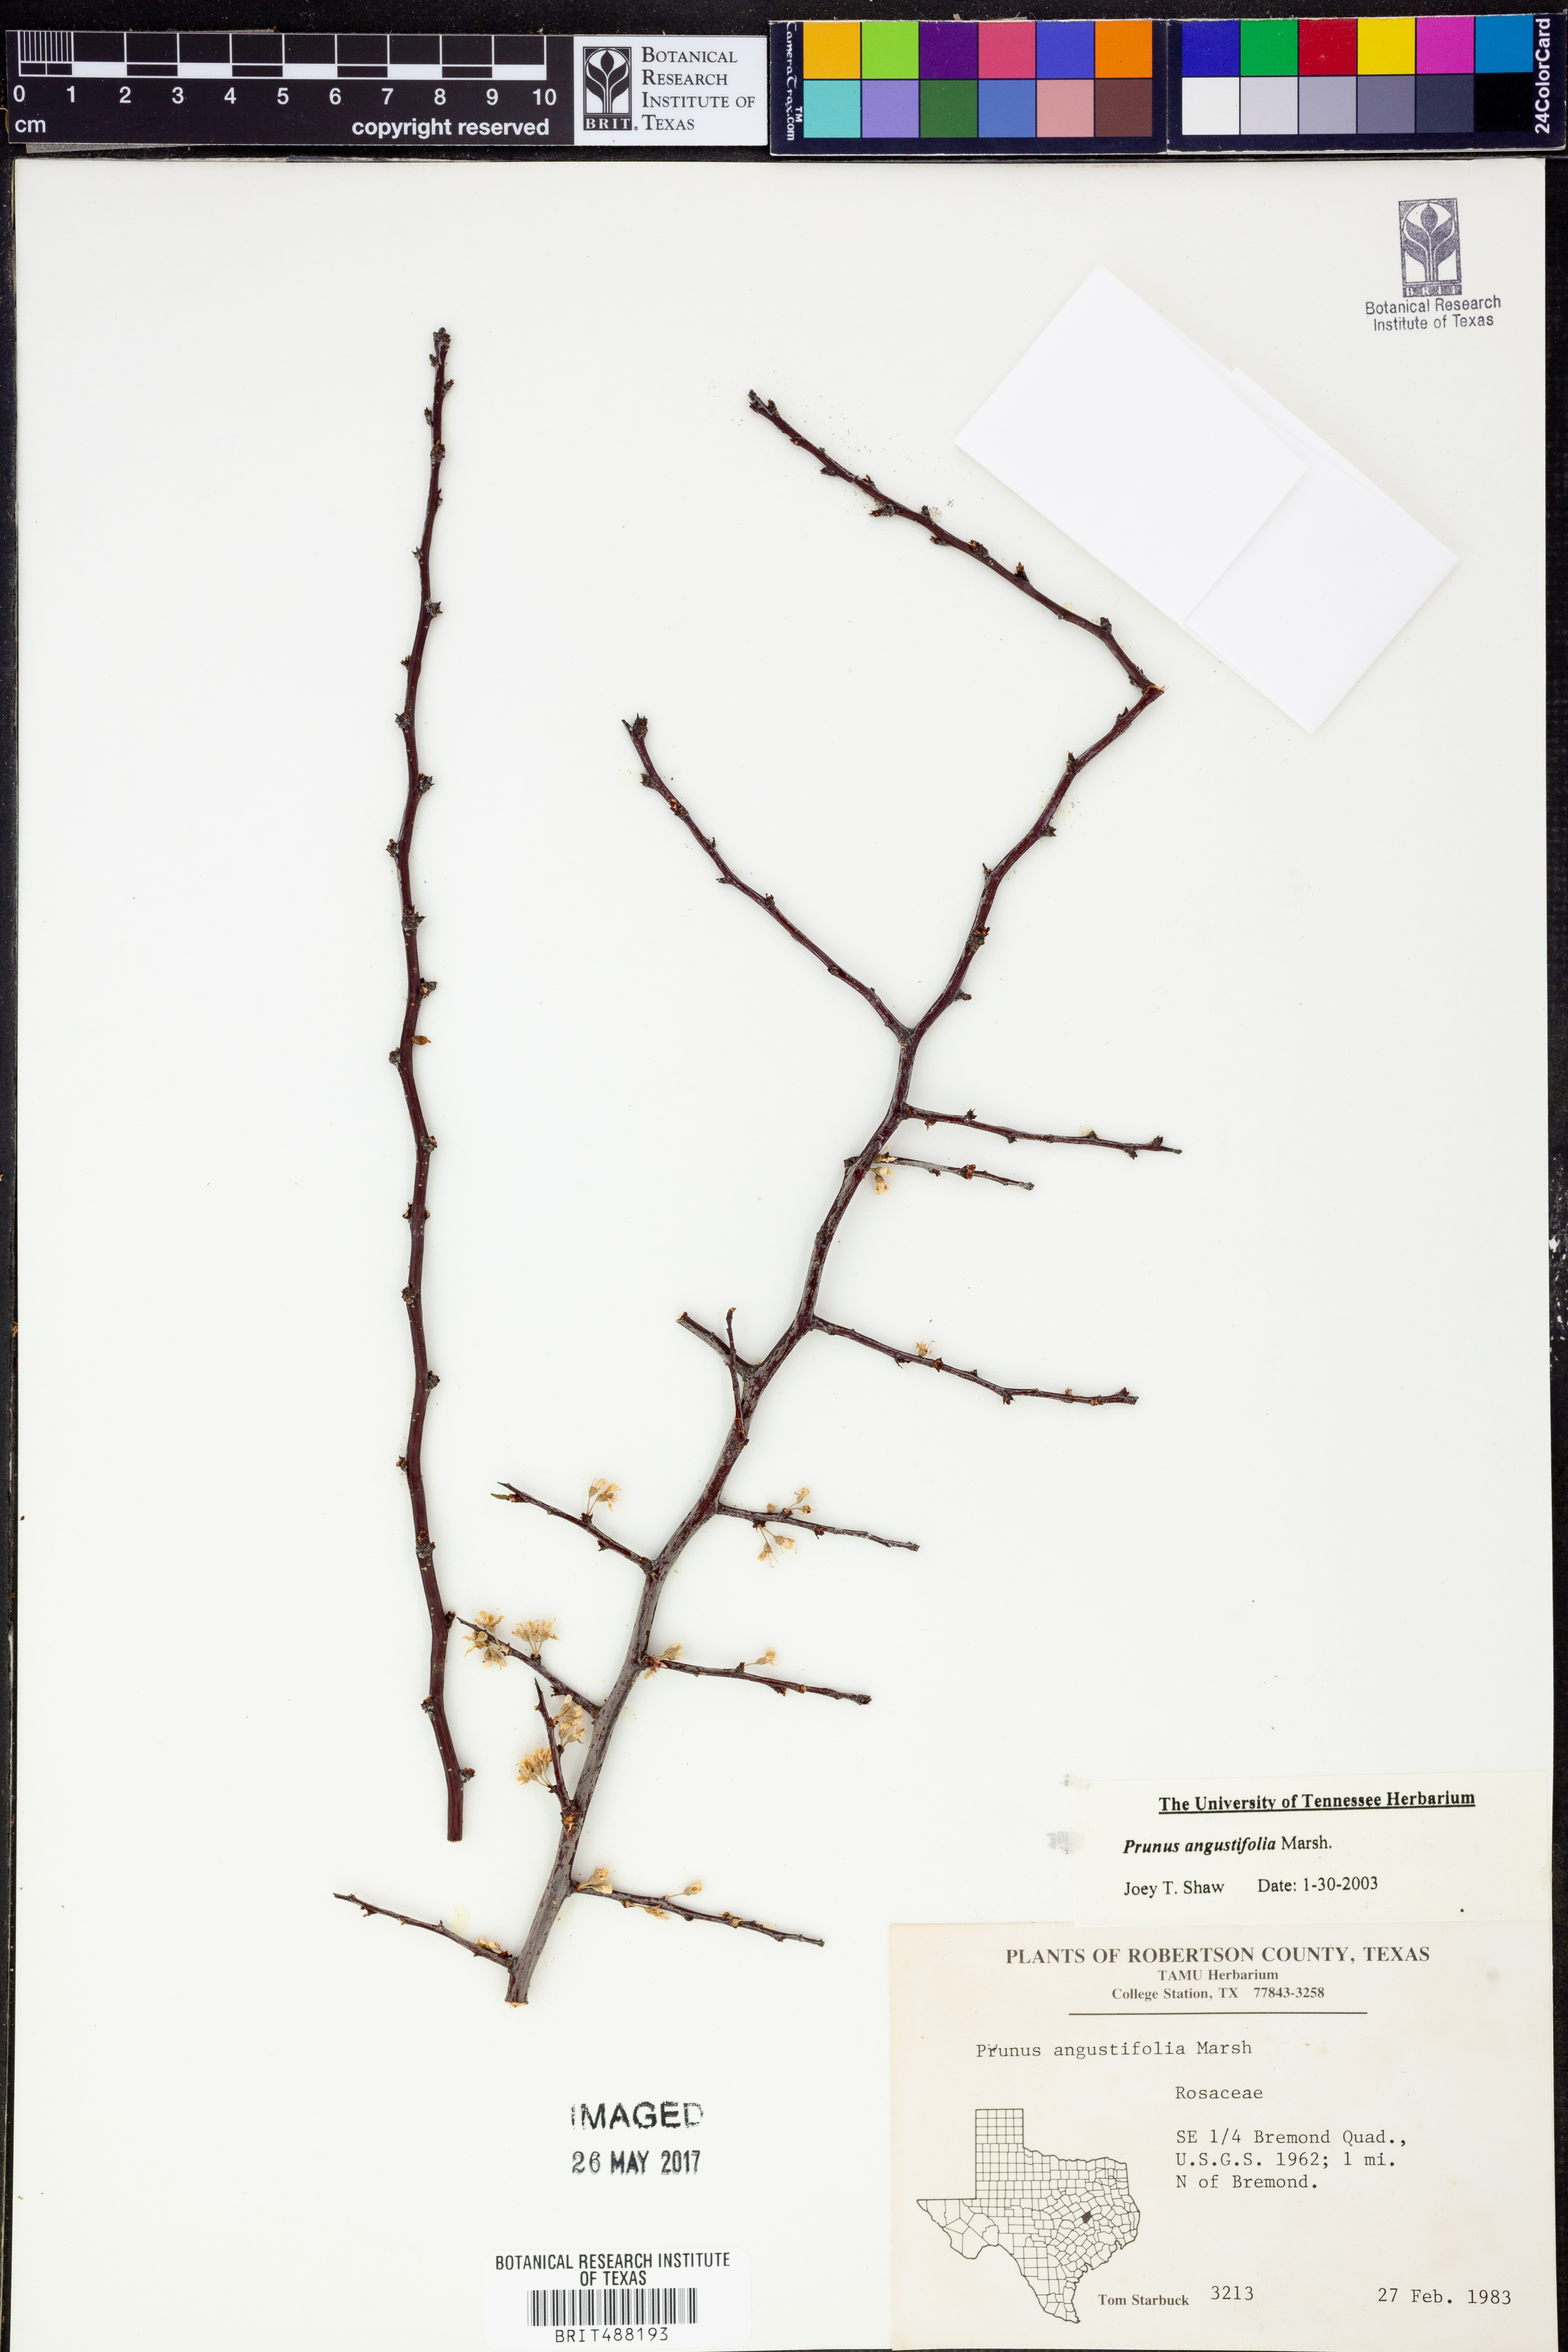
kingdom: Plantae
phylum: Tracheophyta
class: Magnoliopsida
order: Rosales
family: Rosaceae
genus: Prunus
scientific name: Prunus angustifolia
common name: Cherokee plum
